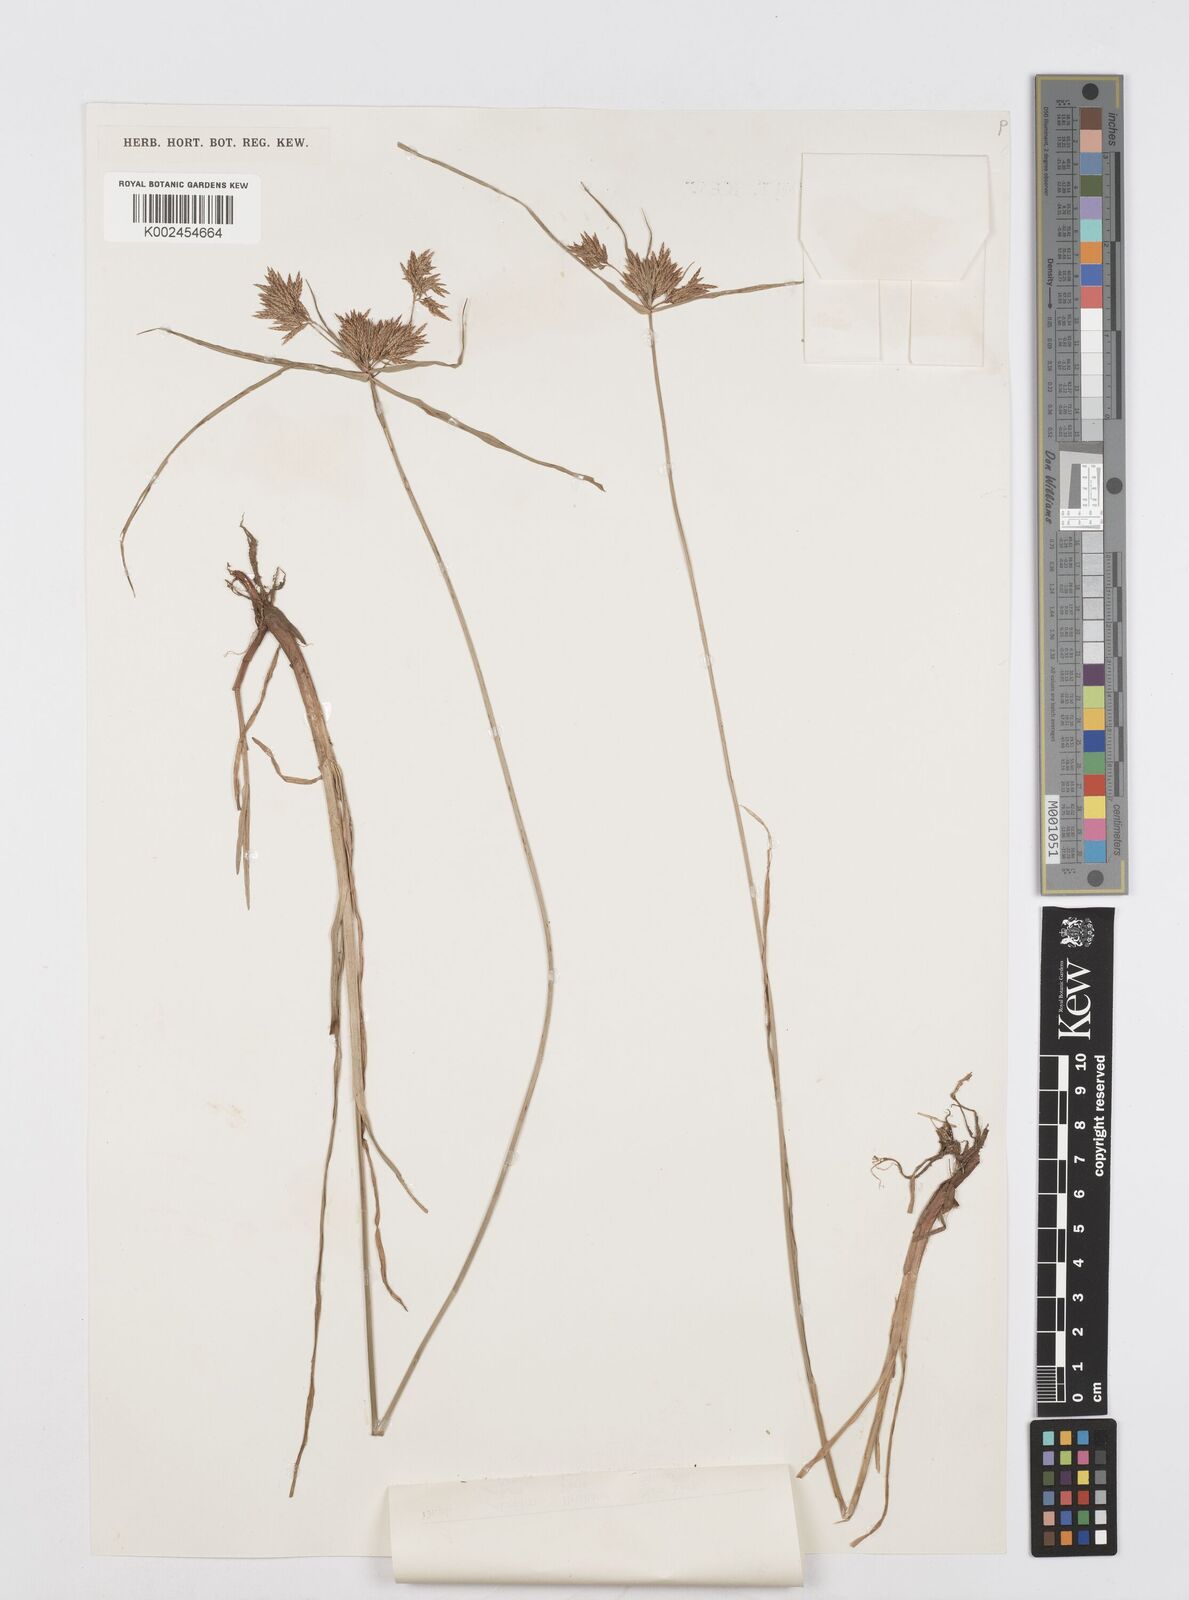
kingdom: Plantae
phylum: Tracheophyta
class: Liliopsida
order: Poales
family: Cyperaceae
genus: Cyperus
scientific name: Cyperus polystachyos
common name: Bunchy flat sedge
